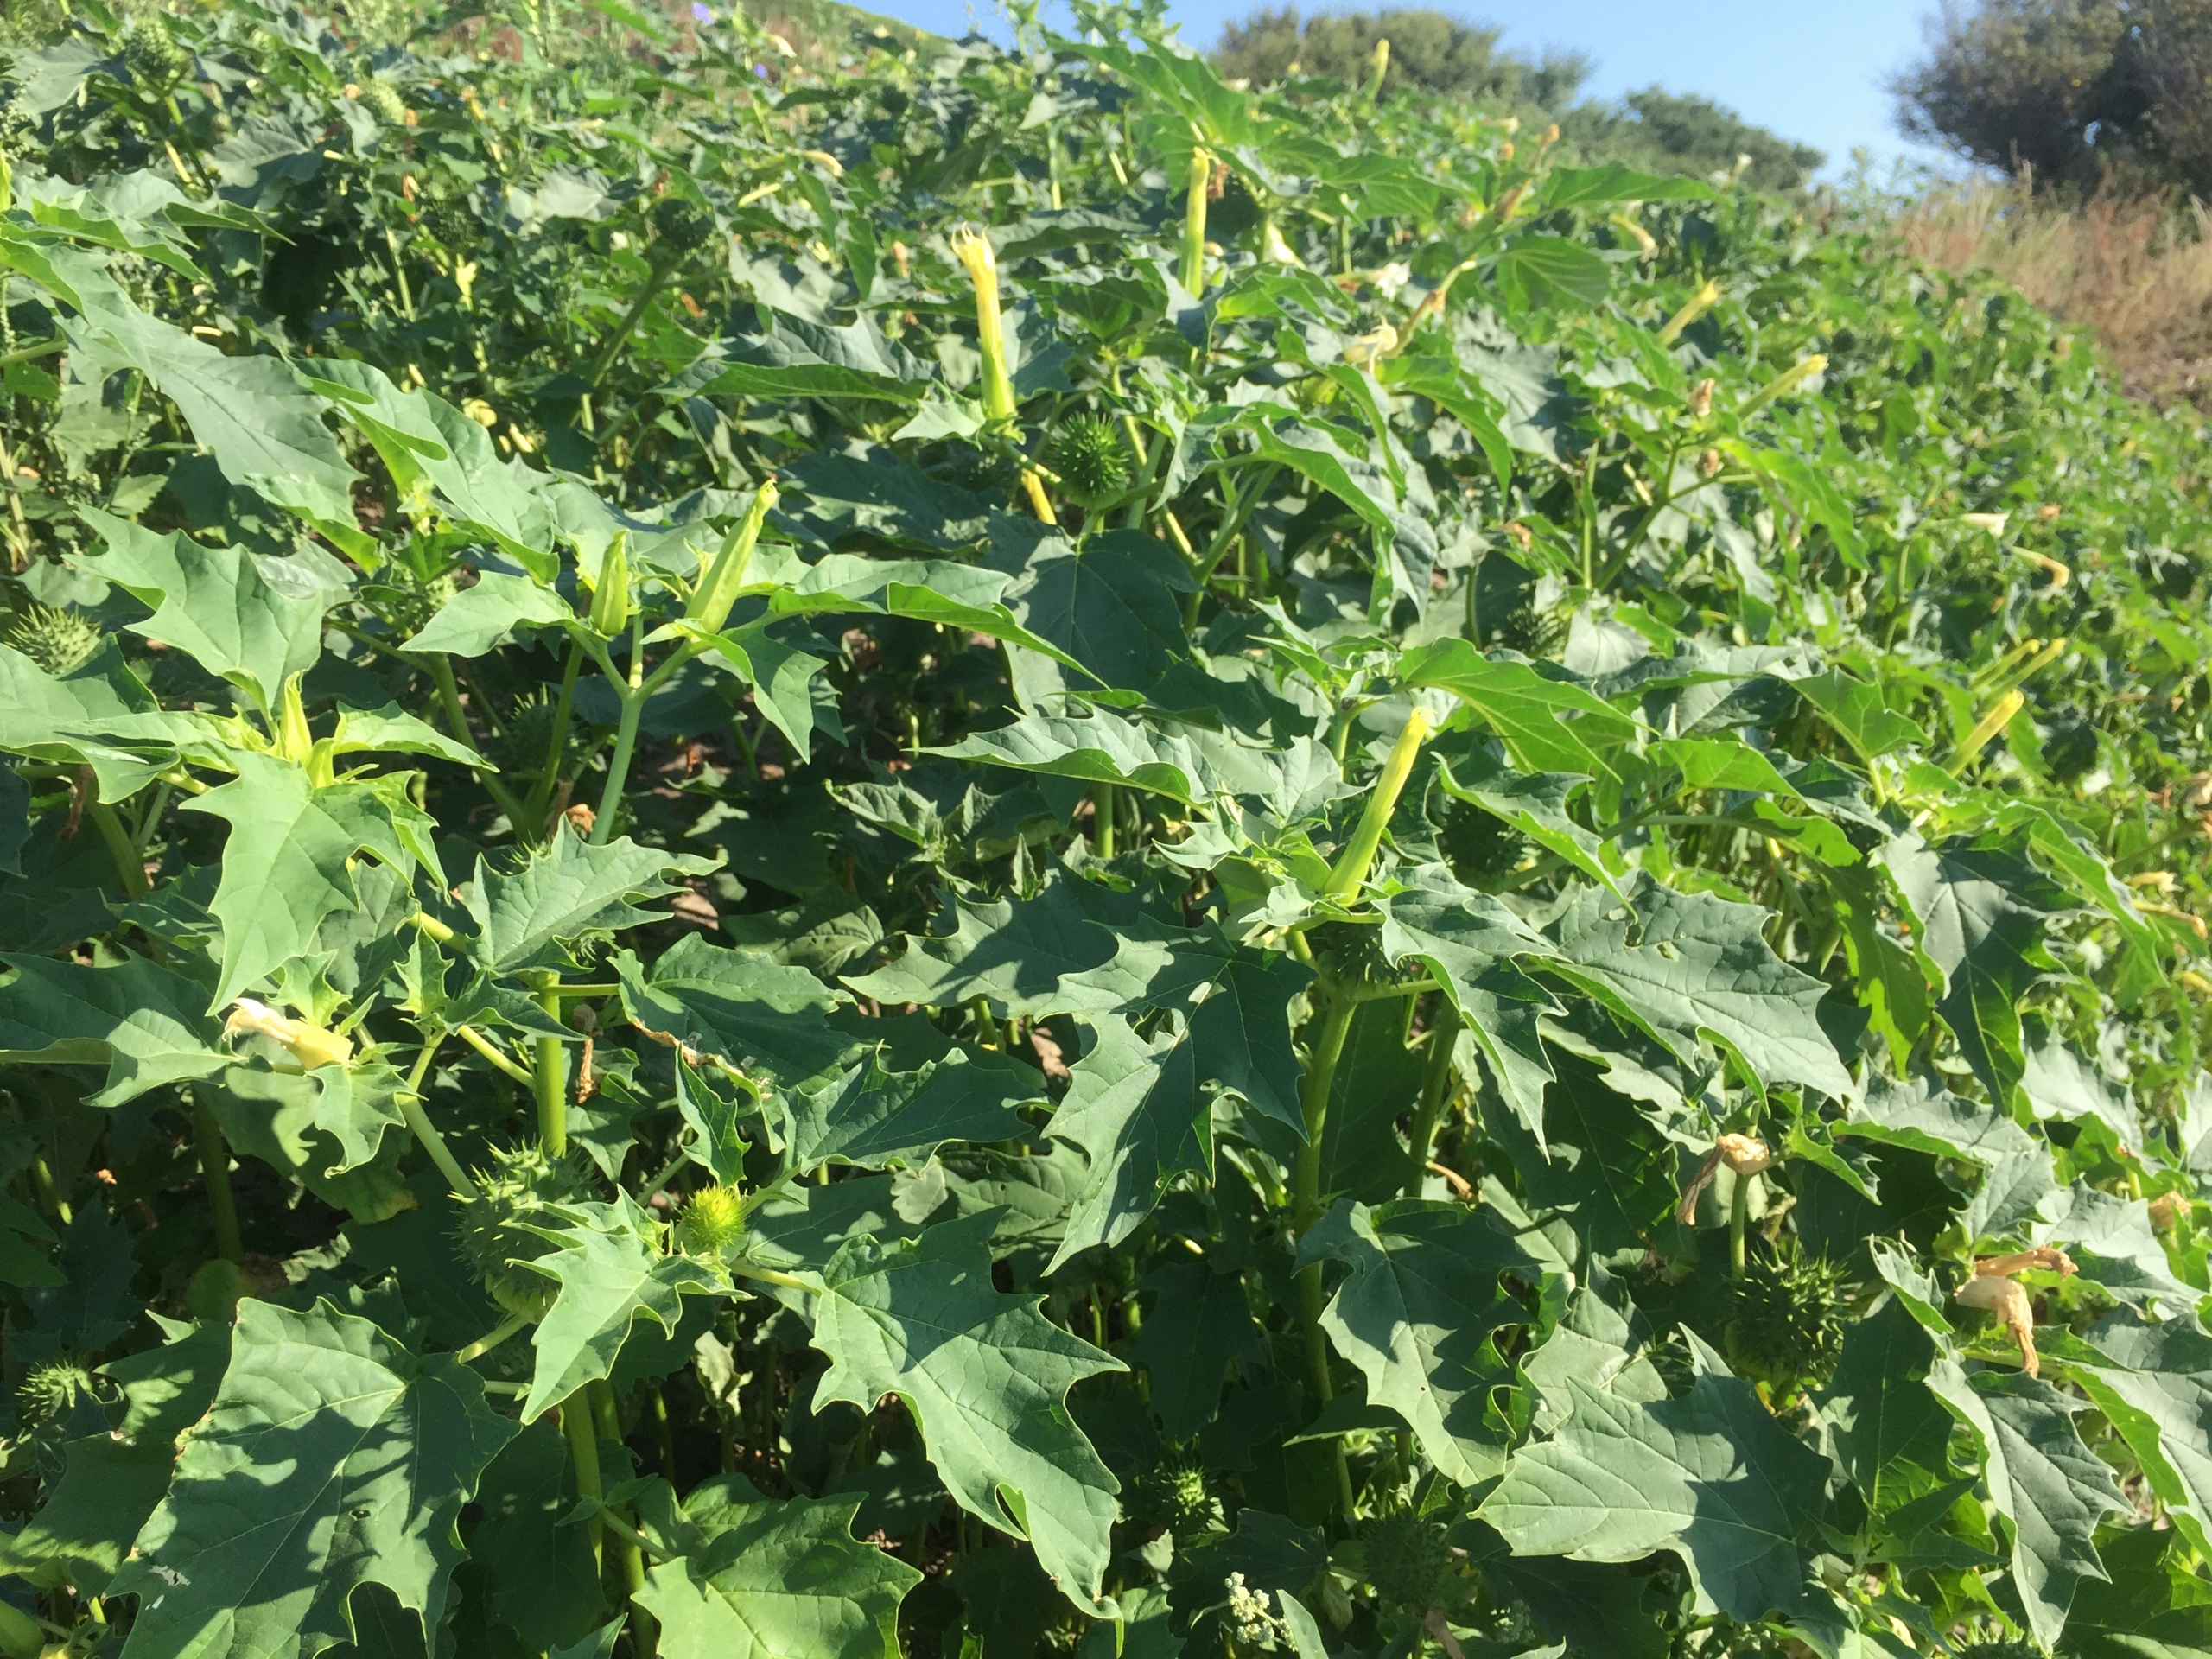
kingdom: Plantae
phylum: Tracheophyta
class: Magnoliopsida
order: Solanales
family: Solanaceae
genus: Datura
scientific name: Datura stramonium
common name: Pigæble
